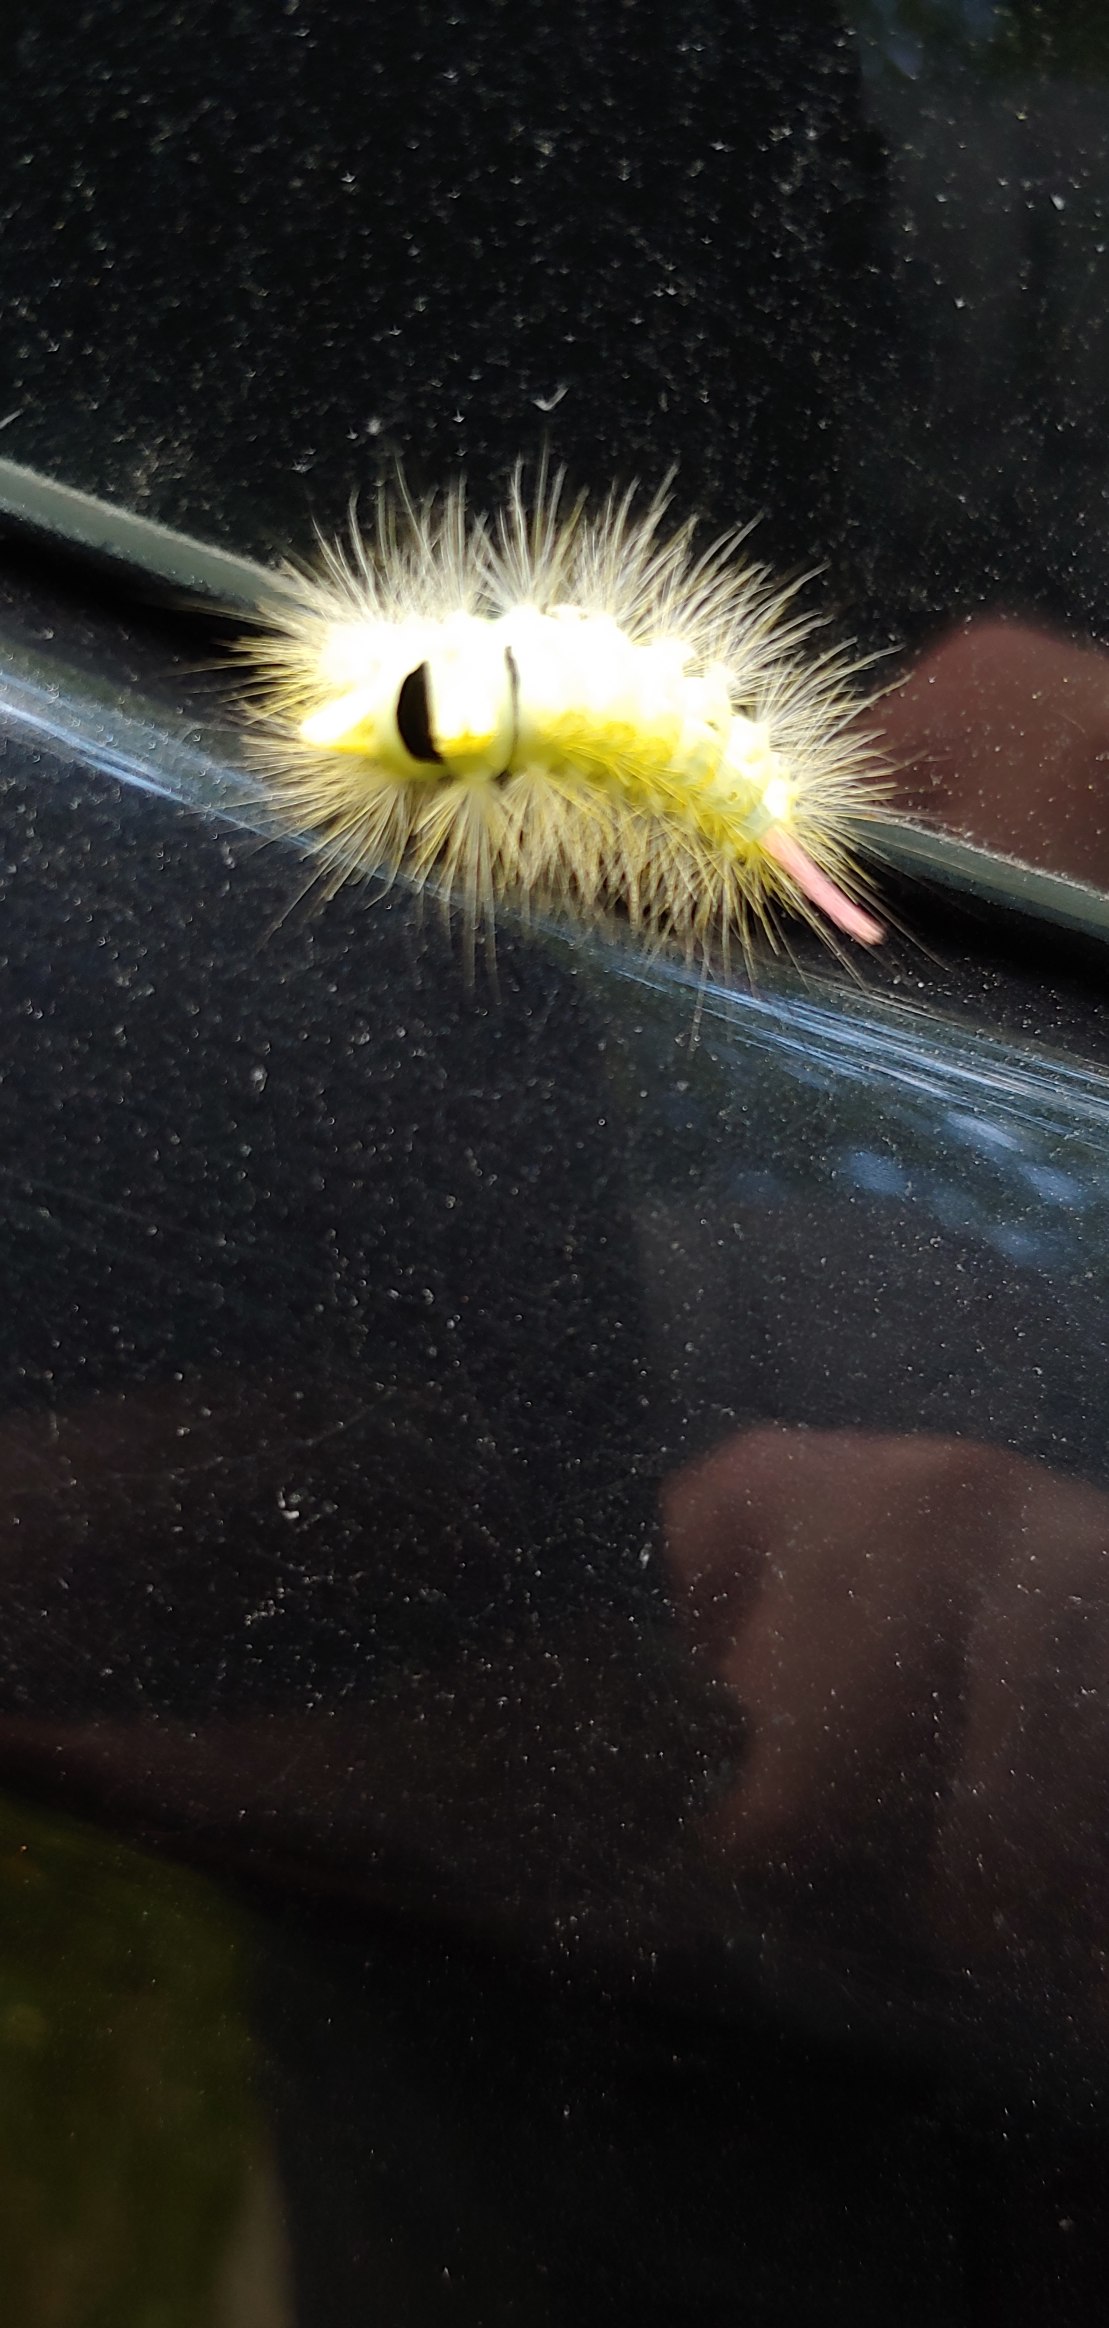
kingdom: Animalia
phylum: Arthropoda
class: Insecta
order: Lepidoptera
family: Erebidae
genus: Calliteara
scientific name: Calliteara pudibunda
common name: Bøgenonne
